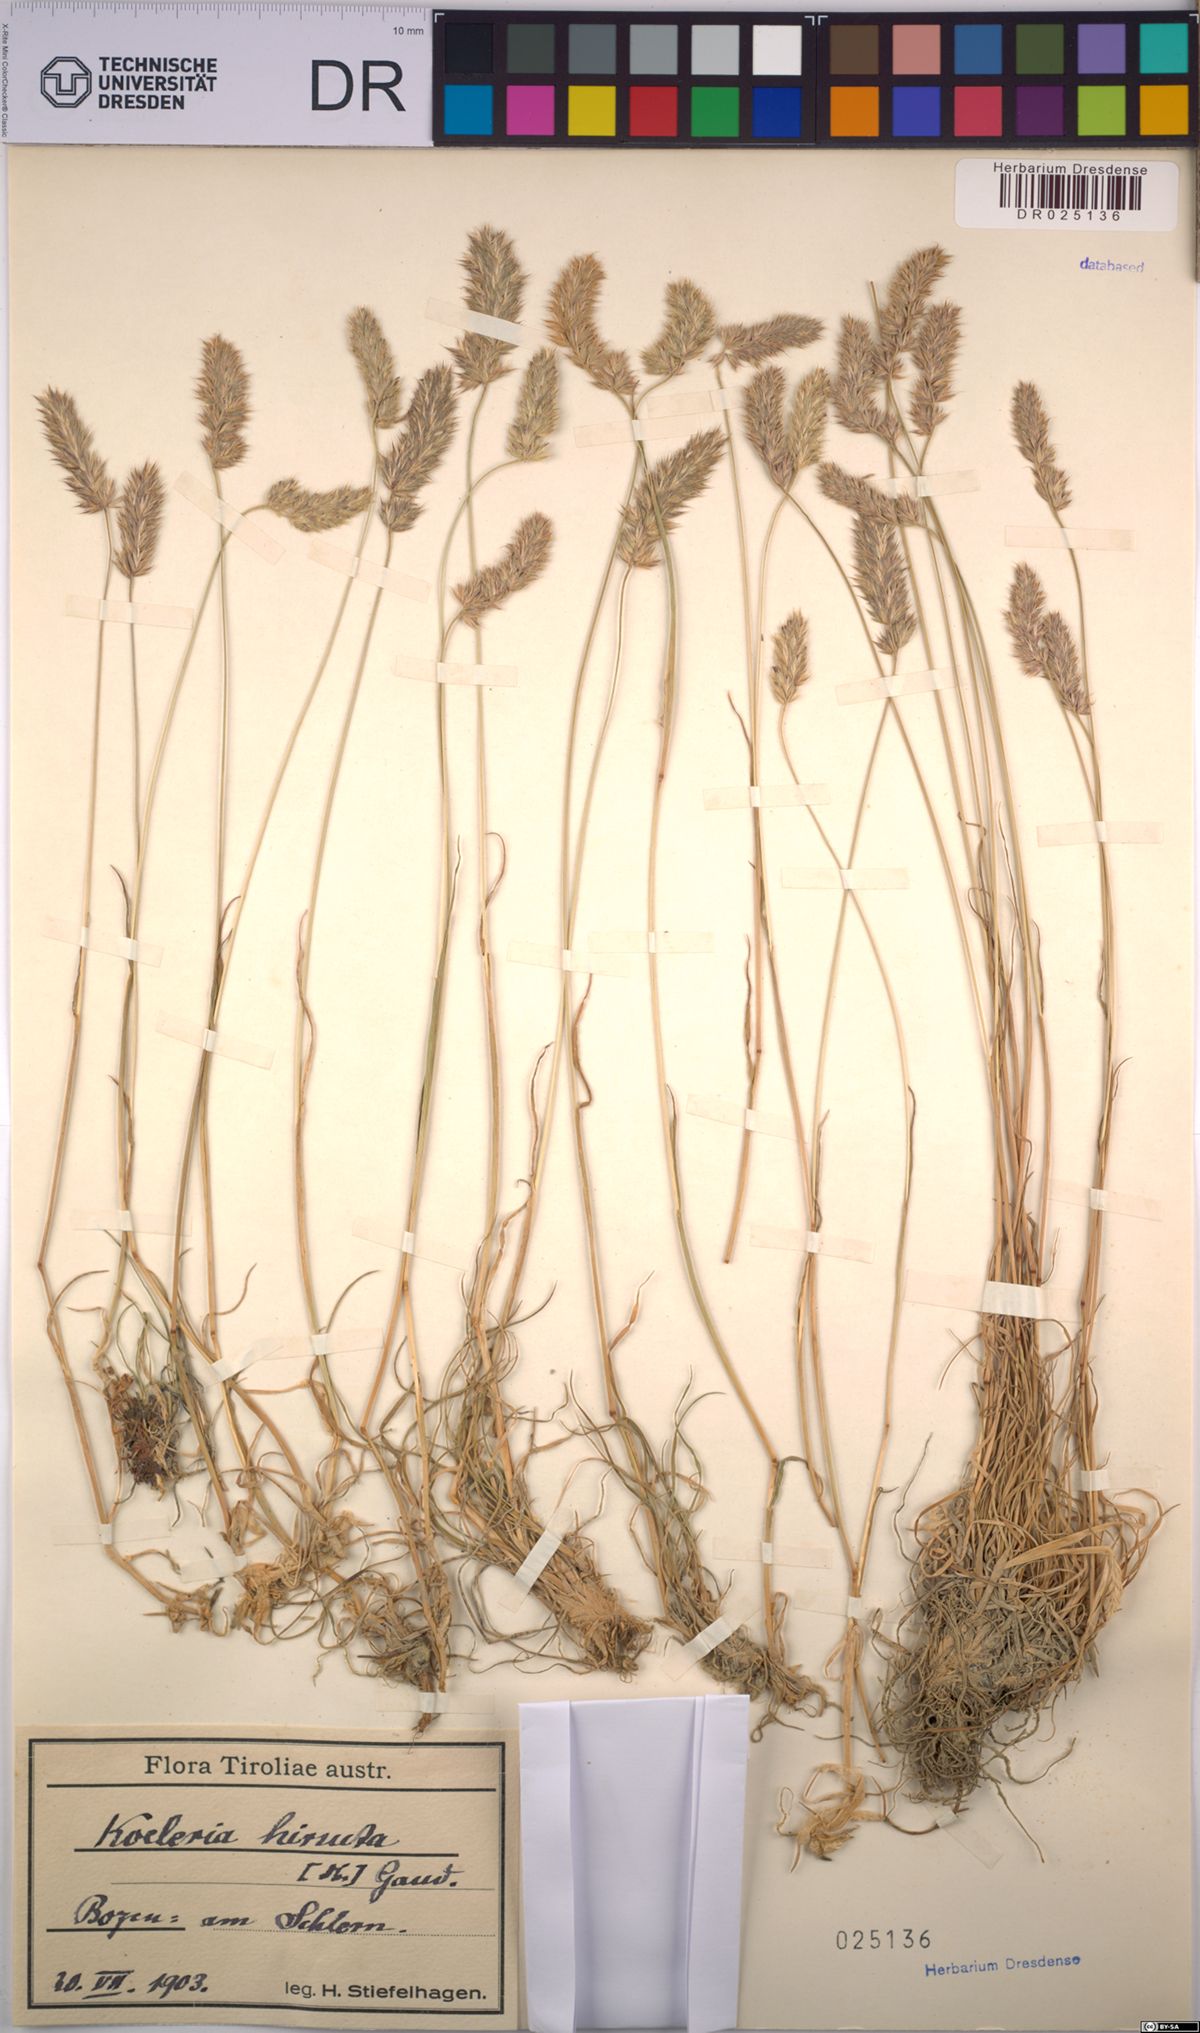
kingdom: Plantae
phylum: Tracheophyta
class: Liliopsida
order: Poales
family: Poaceae
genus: Koeleria
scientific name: Koeleria hirsuta
